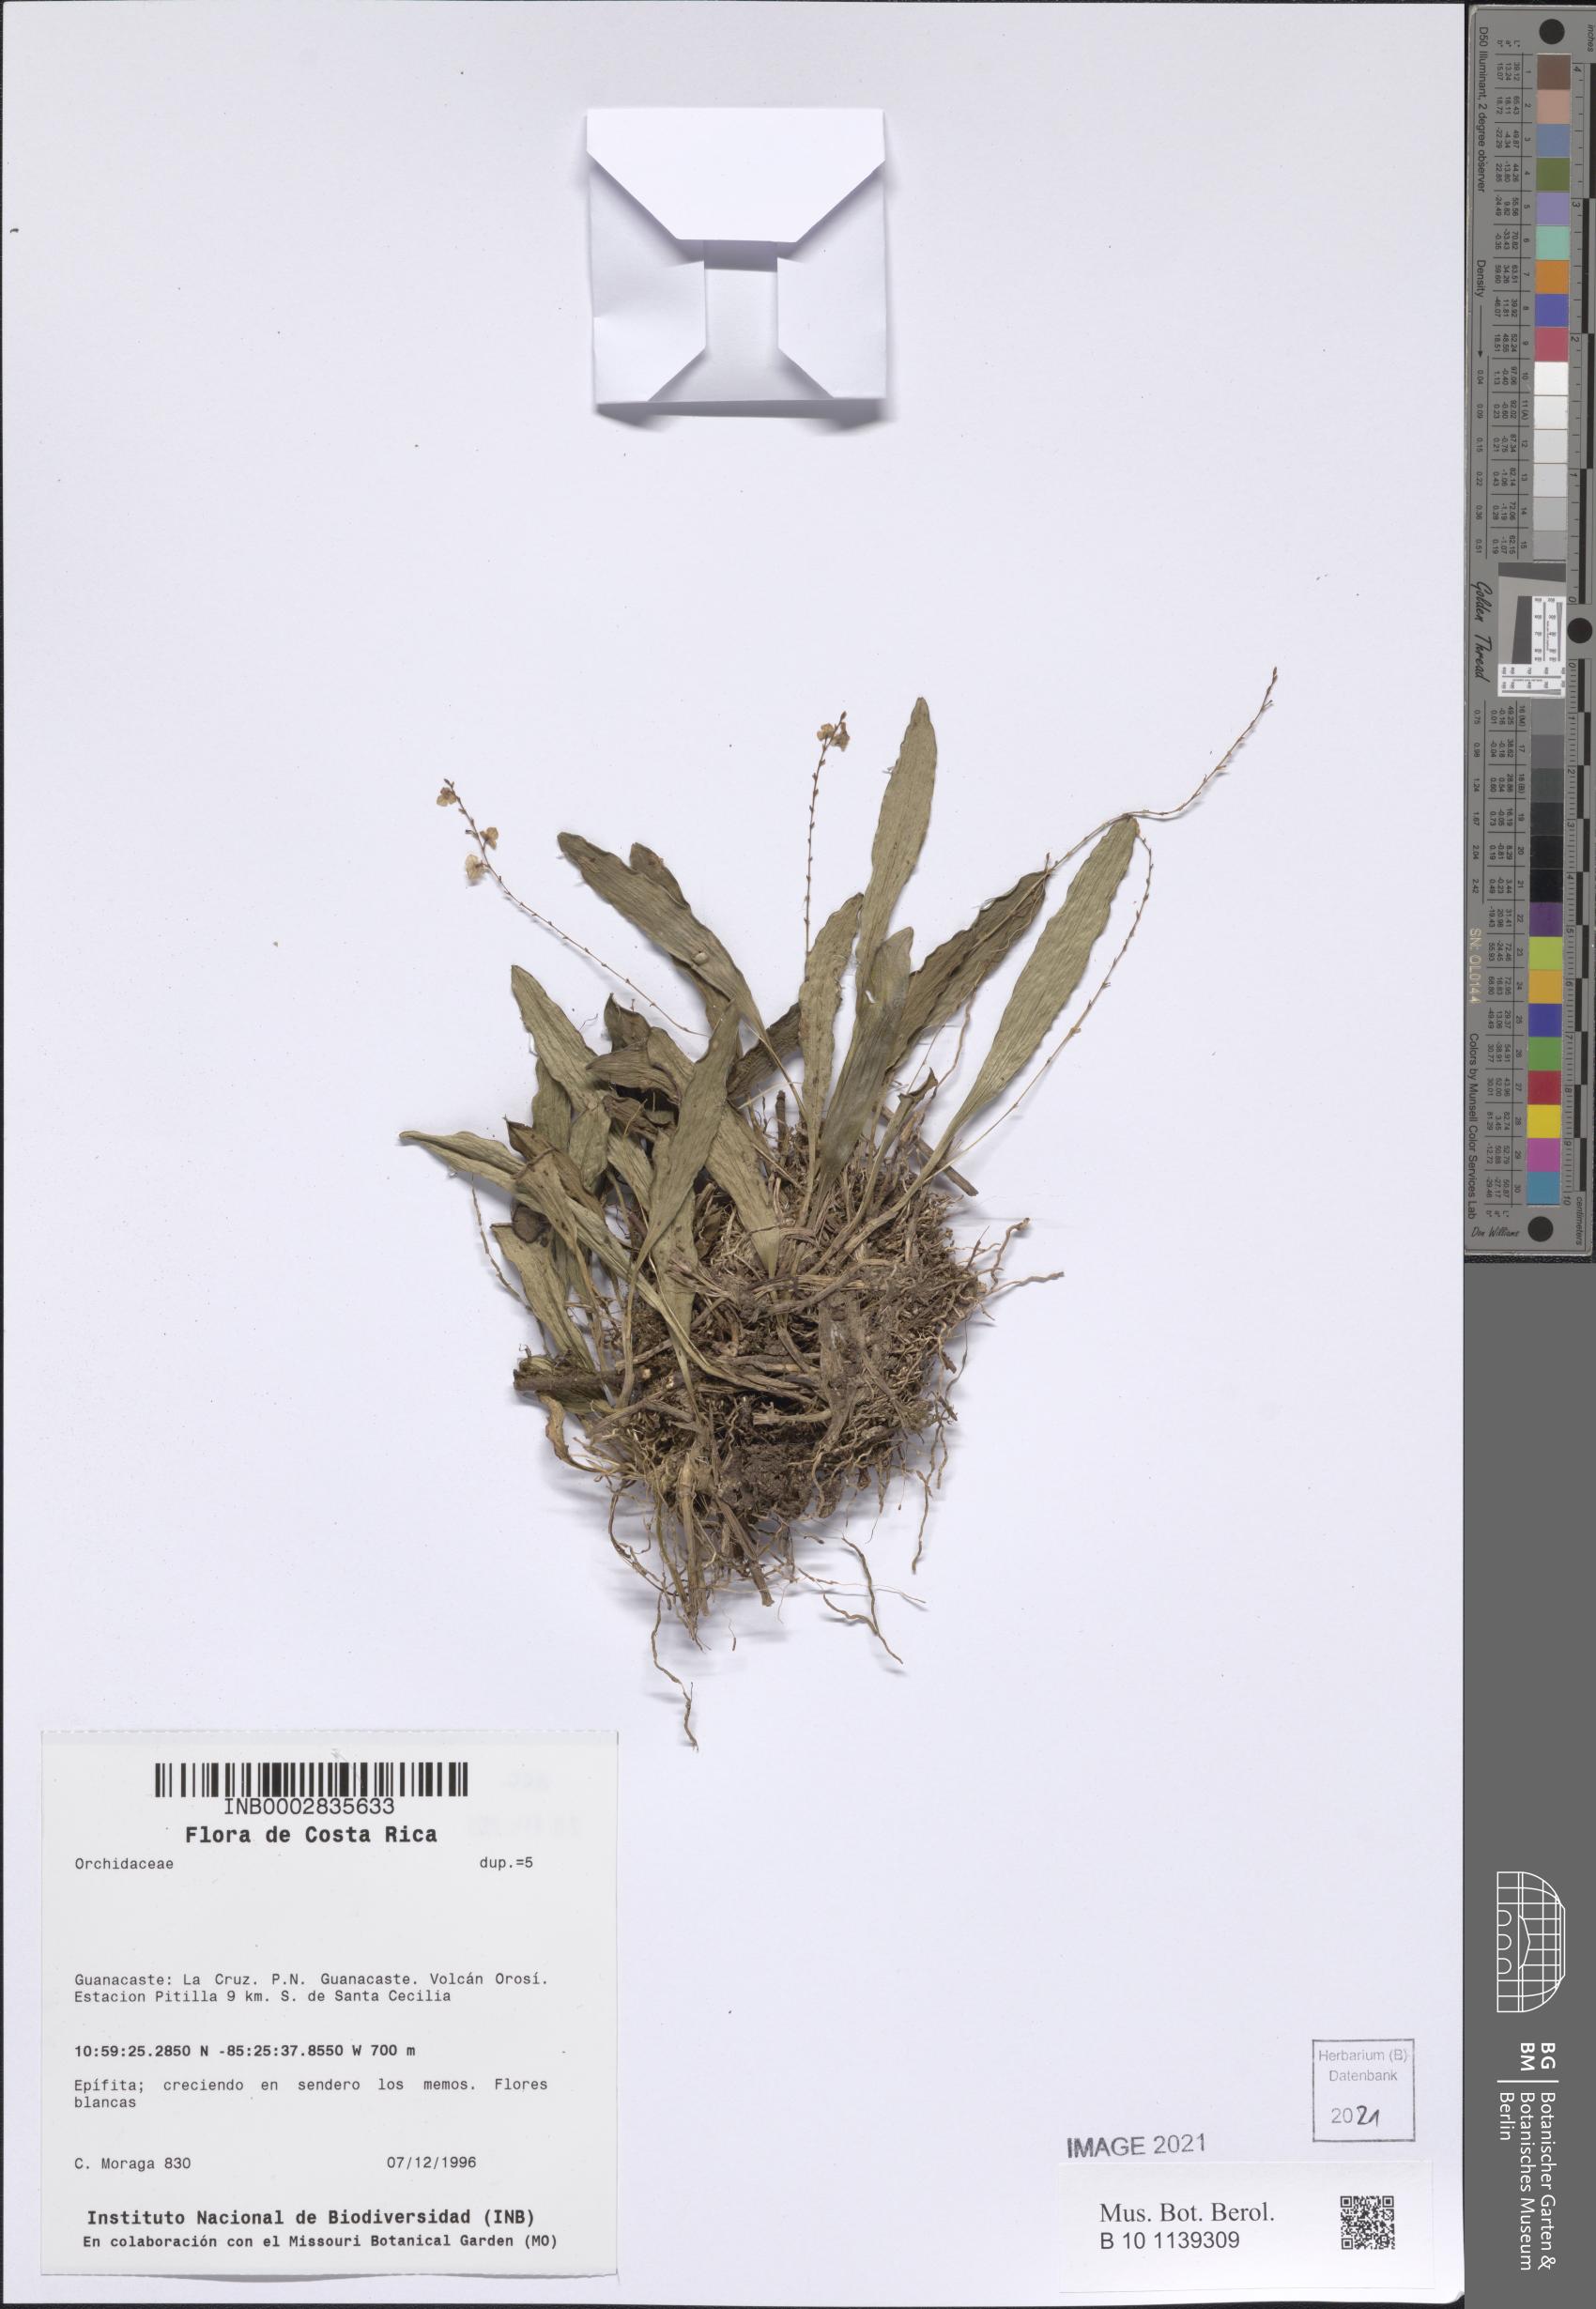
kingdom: Plantae
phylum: Tracheophyta
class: Liliopsida
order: Asparagales
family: Orchidaceae
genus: Stelis
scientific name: Stelis
